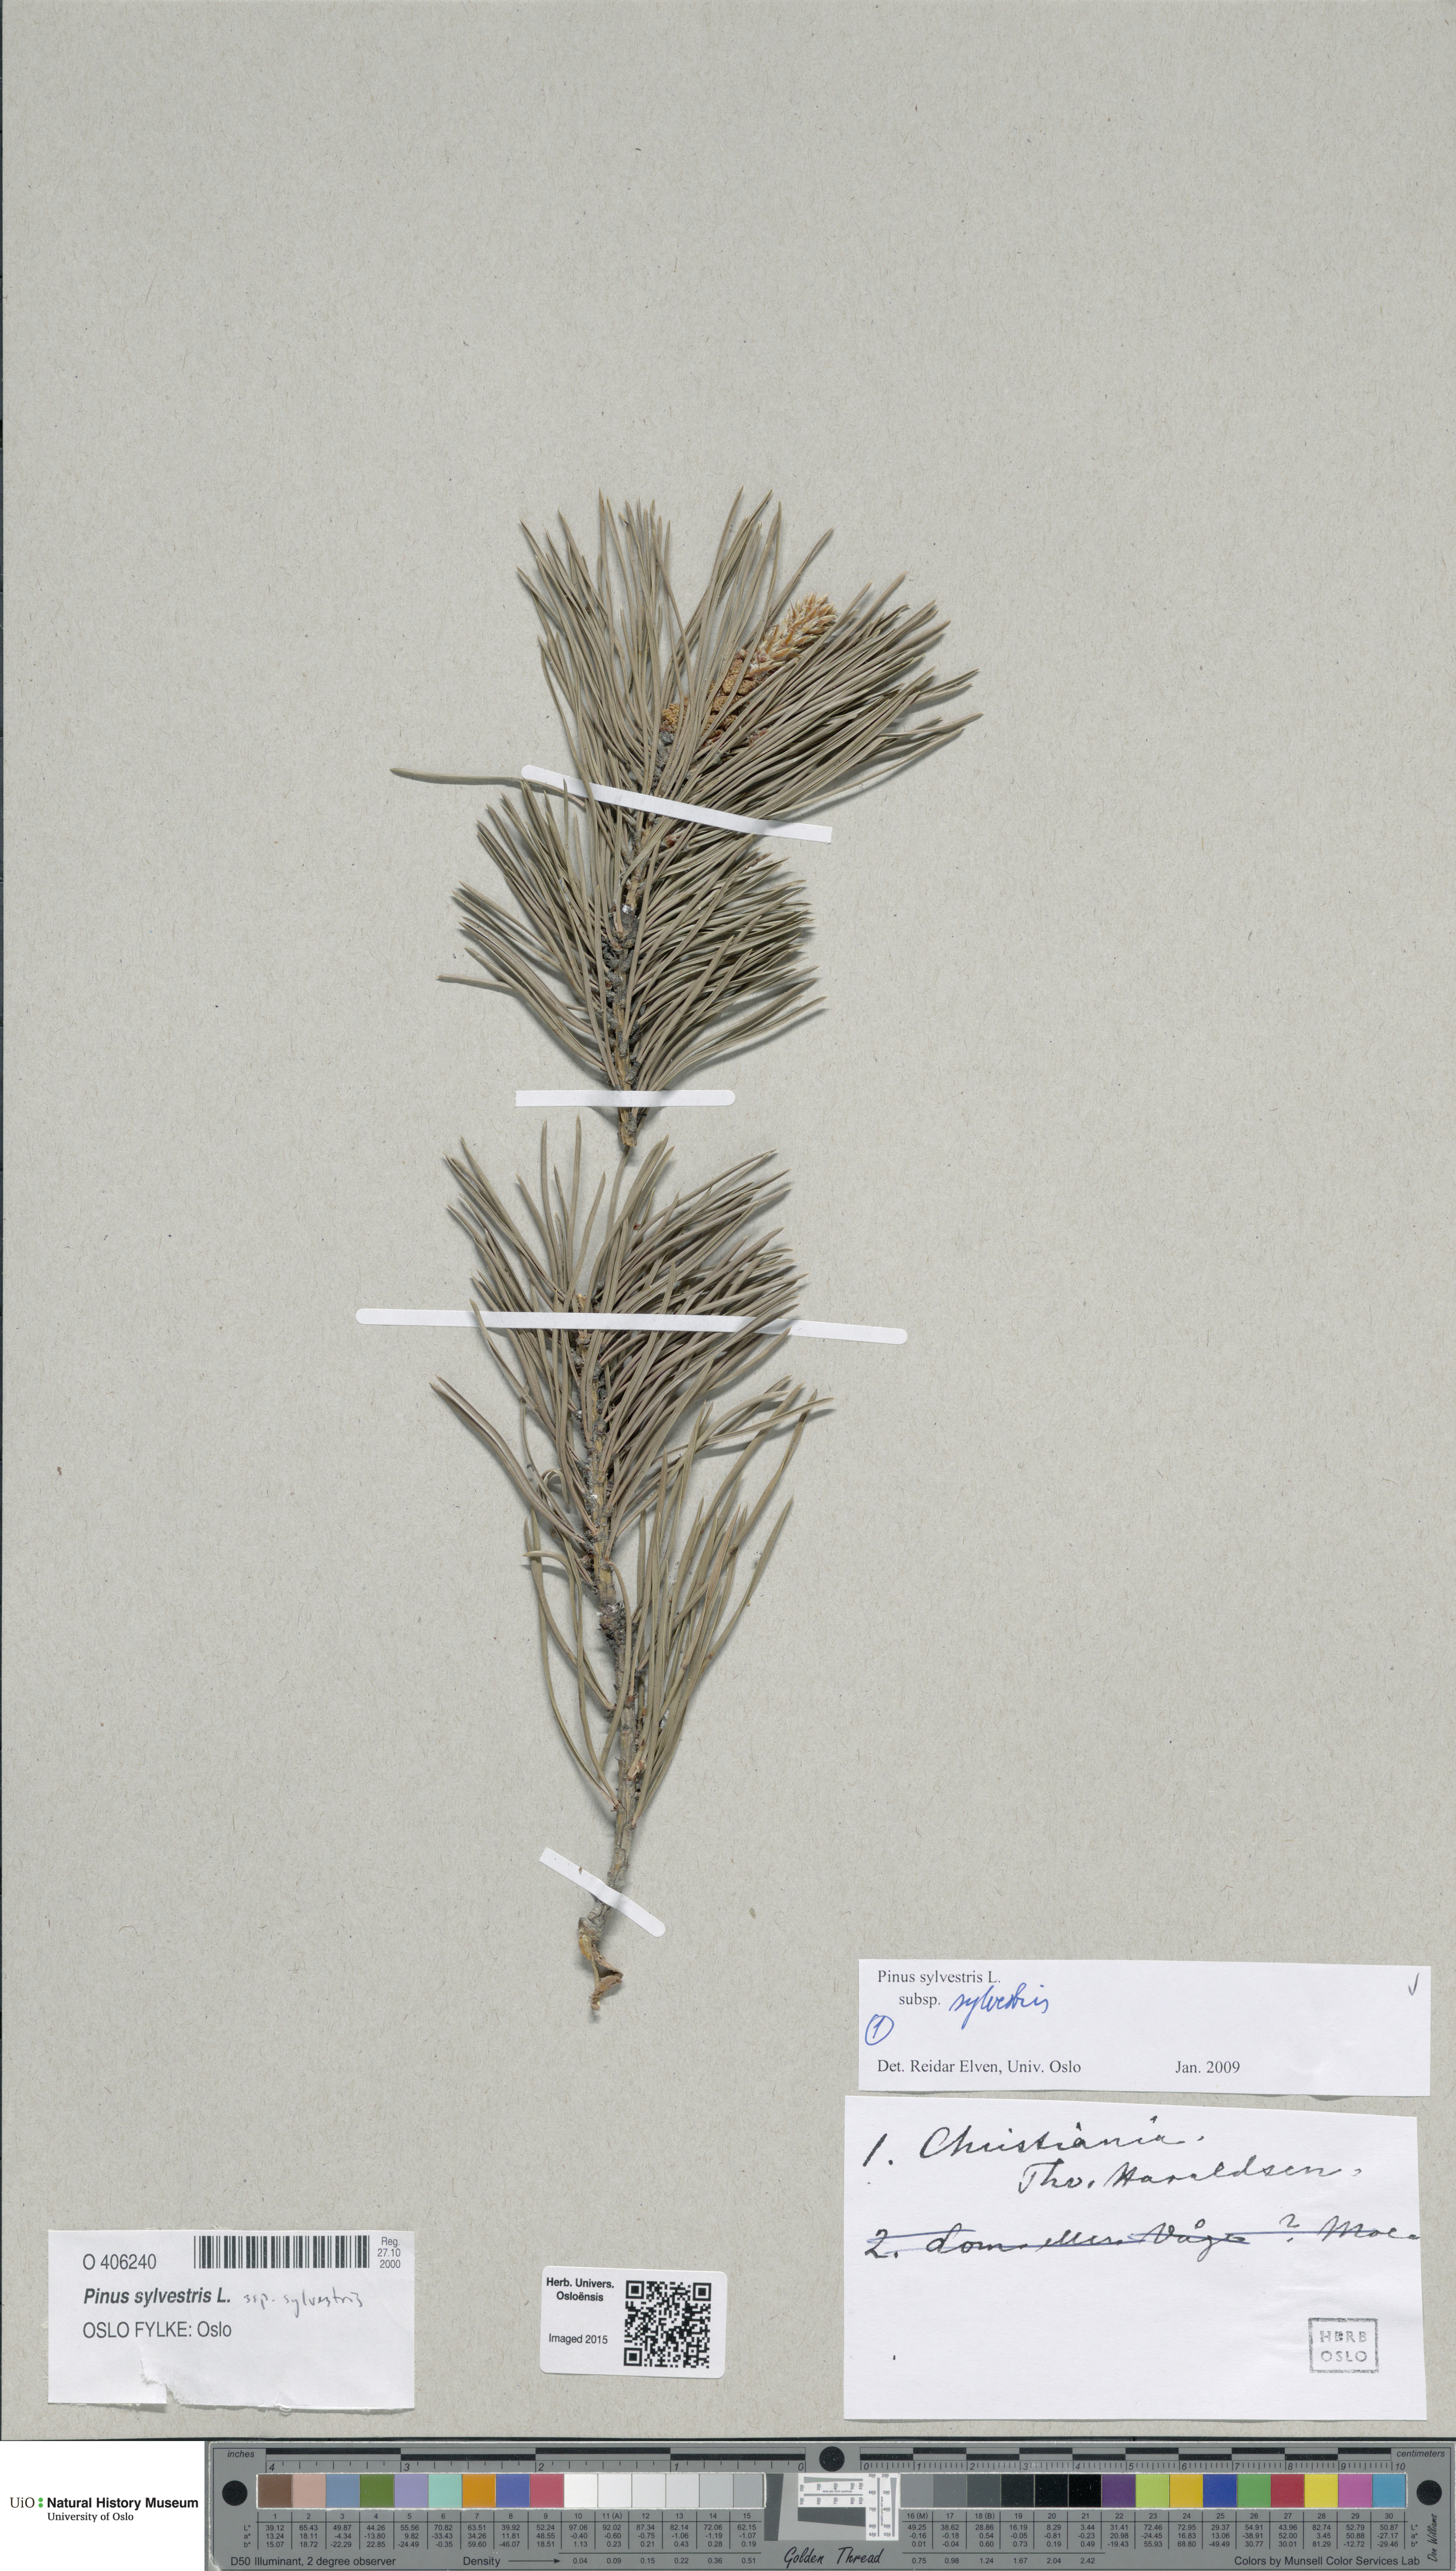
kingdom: Plantae
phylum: Tracheophyta
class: Pinopsida
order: Pinales
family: Pinaceae
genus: Pinus
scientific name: Pinus sylvestris
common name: Scots pine
